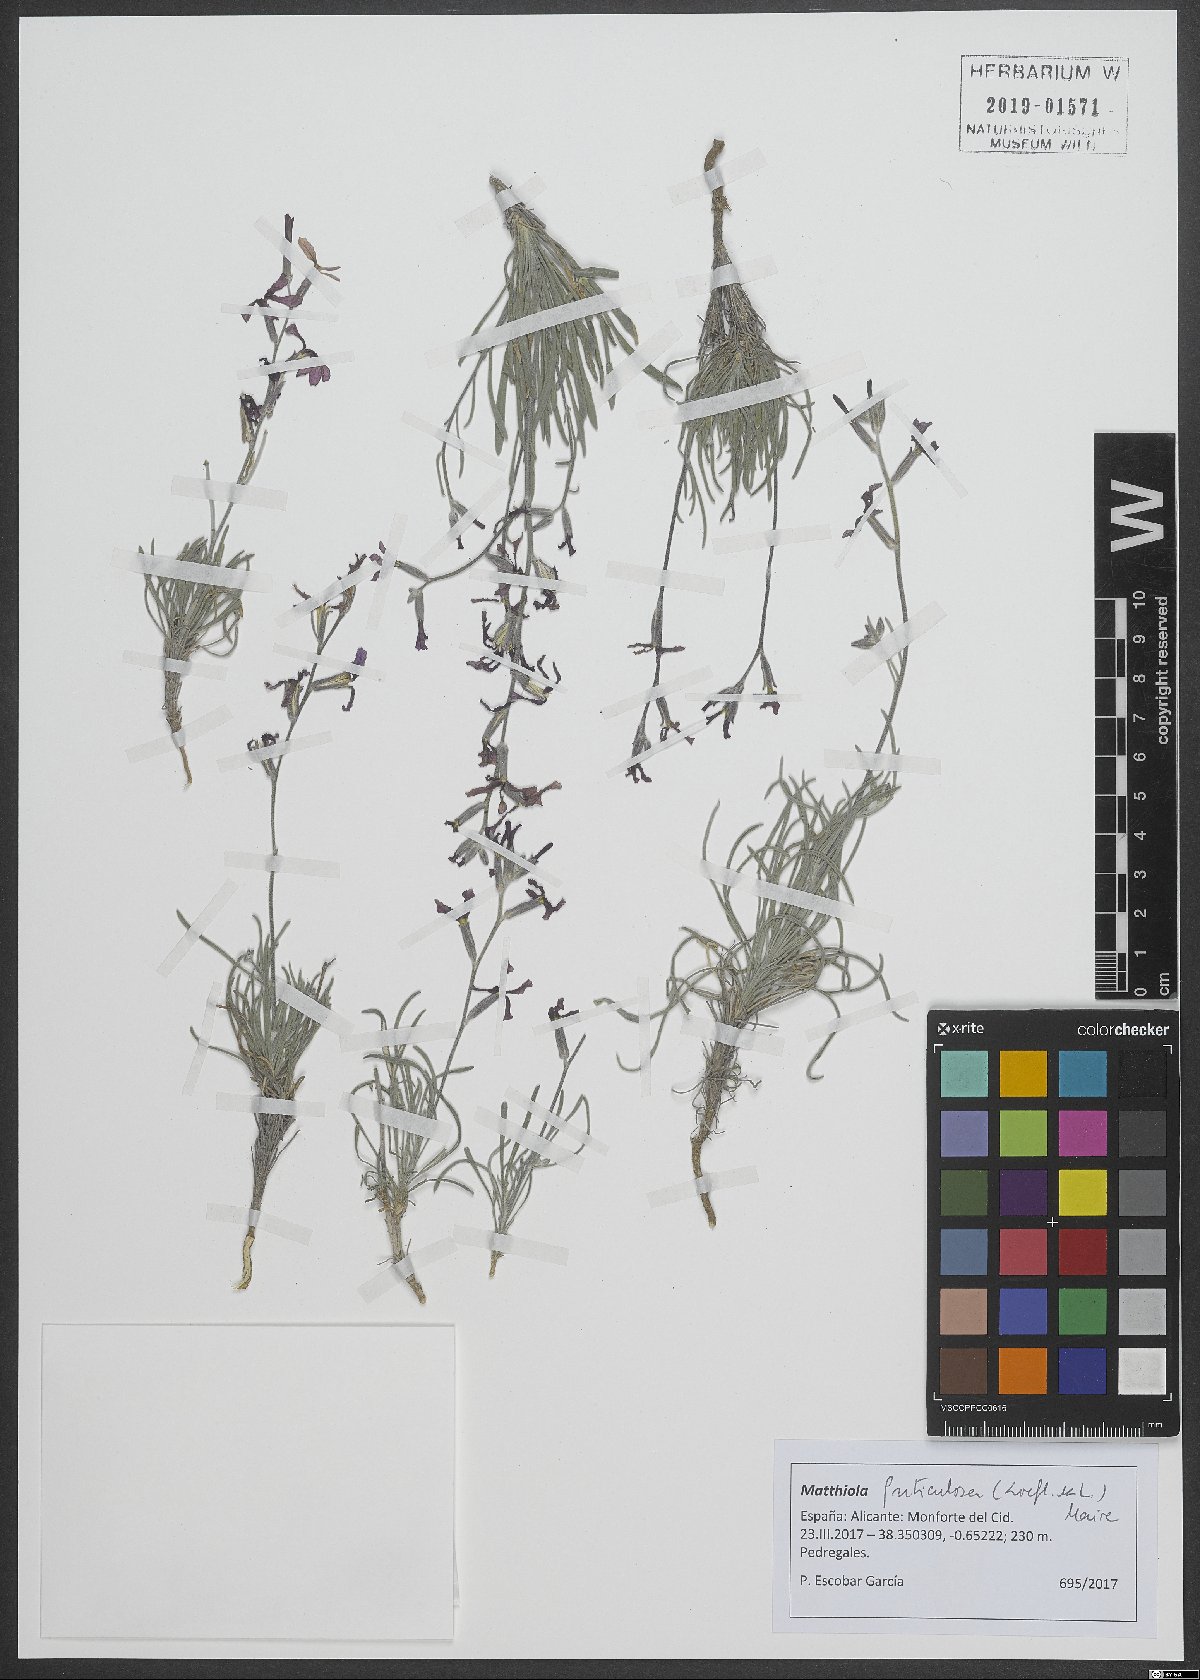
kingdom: Plantae
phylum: Tracheophyta
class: Magnoliopsida
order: Brassicales
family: Brassicaceae
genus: Matthiola
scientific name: Matthiola fruticulosa
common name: Sad stock
